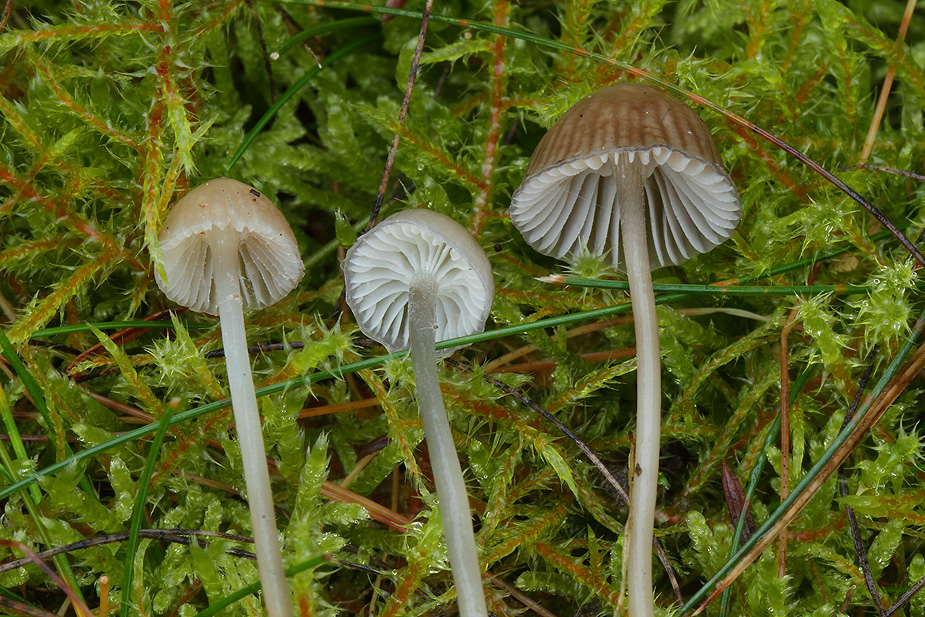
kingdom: Fungi
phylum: Basidiomycota
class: Agaricomycetes
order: Agaricales
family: Mycenaceae
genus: Mycena
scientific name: Mycena epipterygia
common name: gulstokket huesvamp
